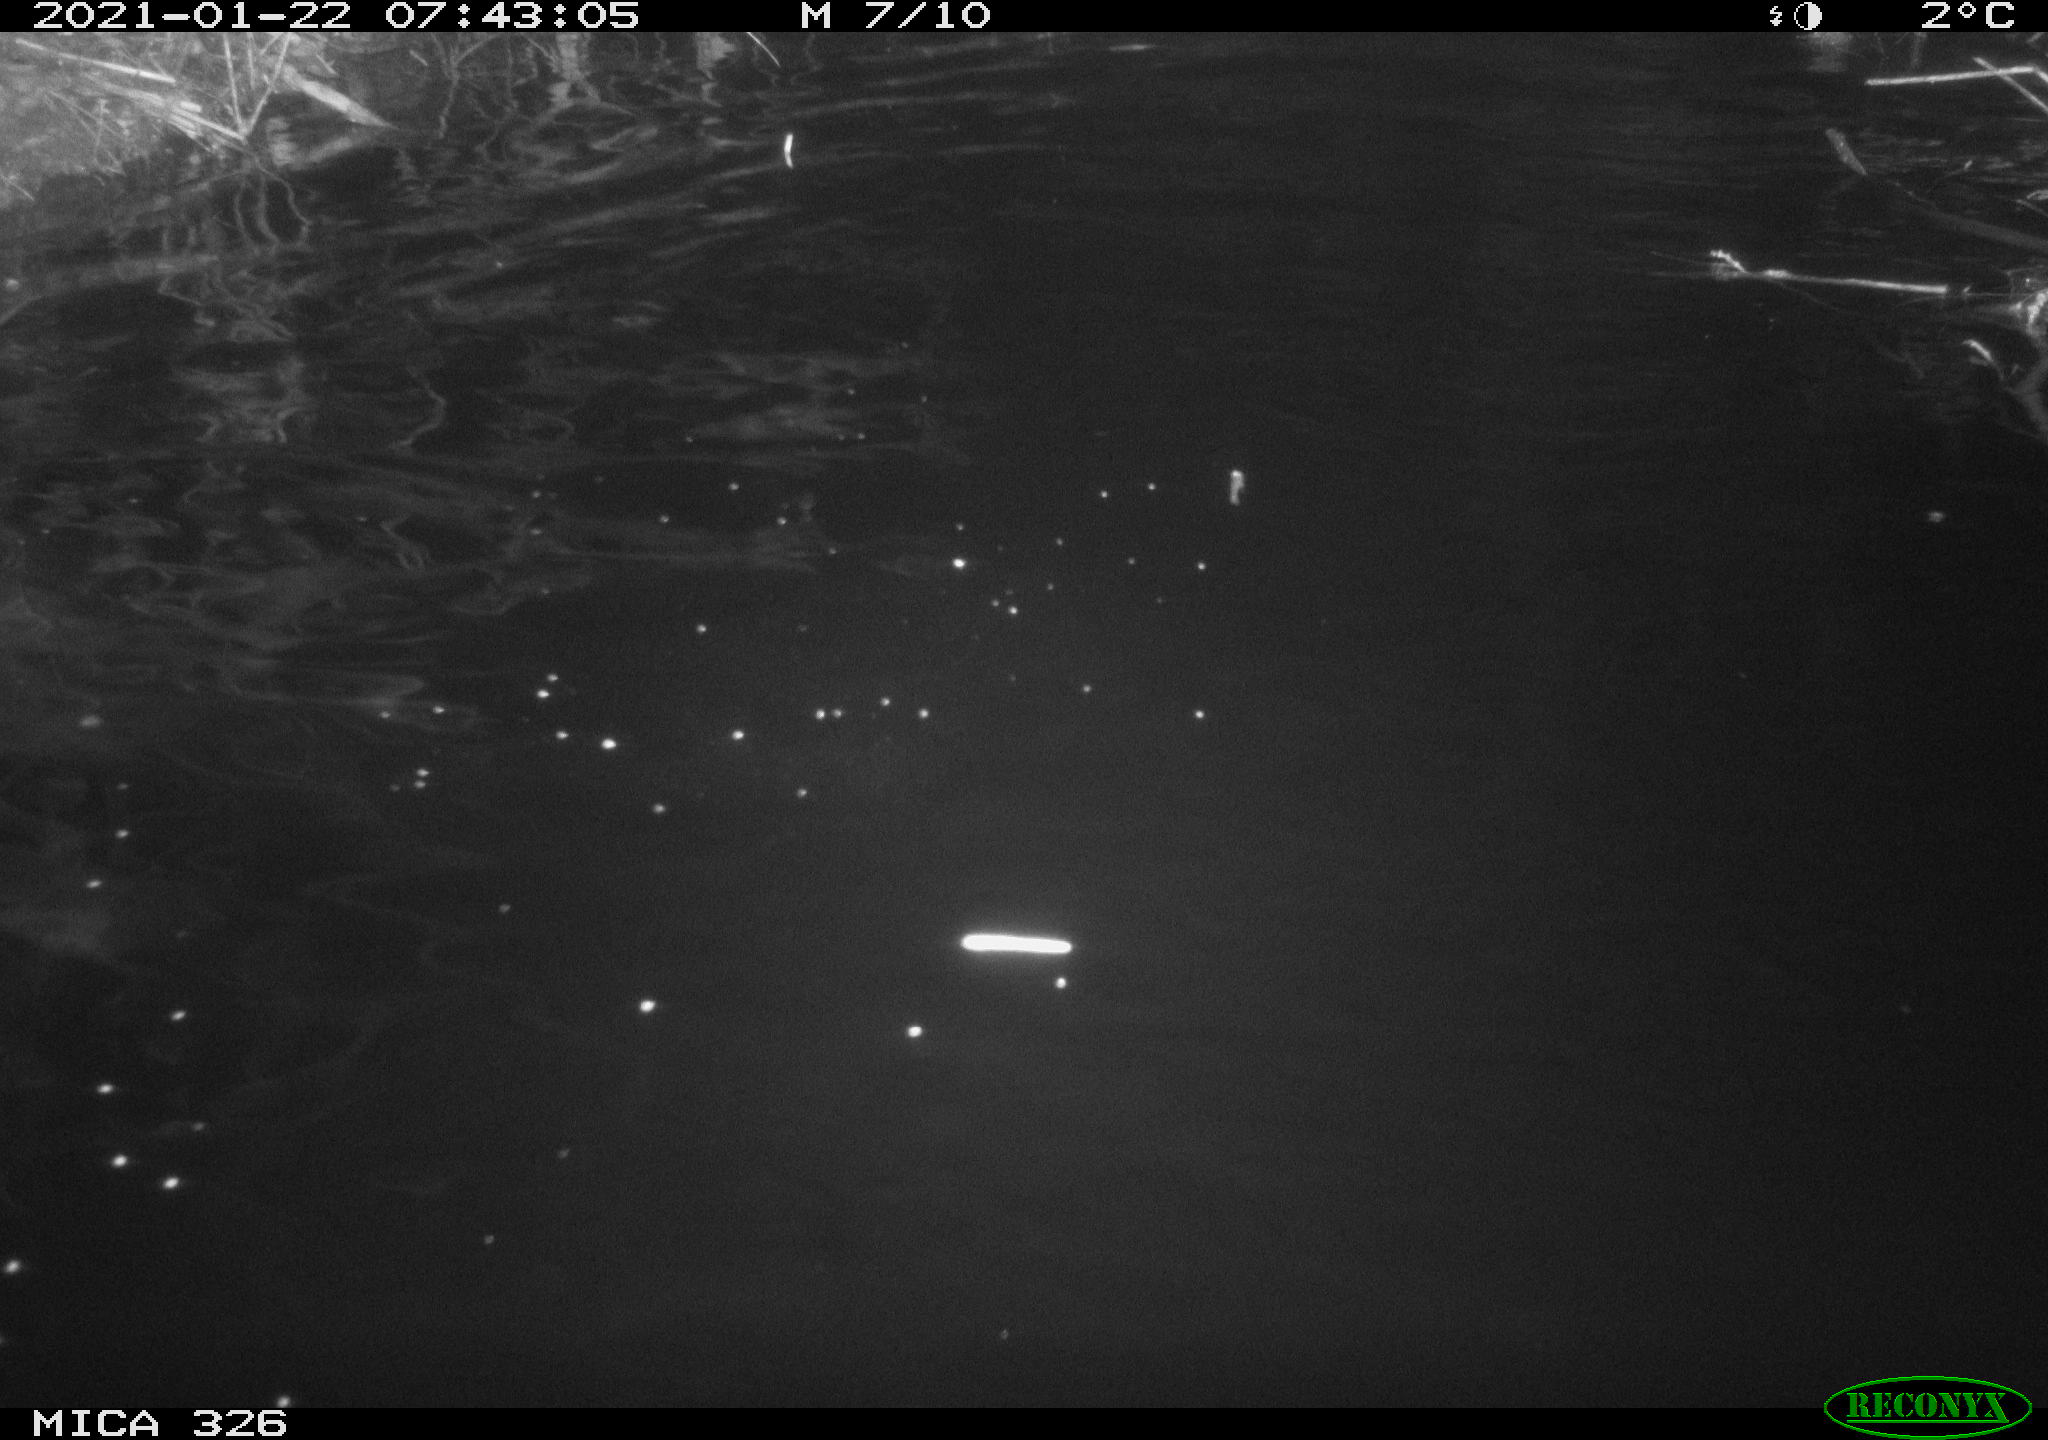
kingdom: Animalia
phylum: Chordata
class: Mammalia
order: Rodentia
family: Myocastoridae
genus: Myocastor
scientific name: Myocastor coypus
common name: Coypu
